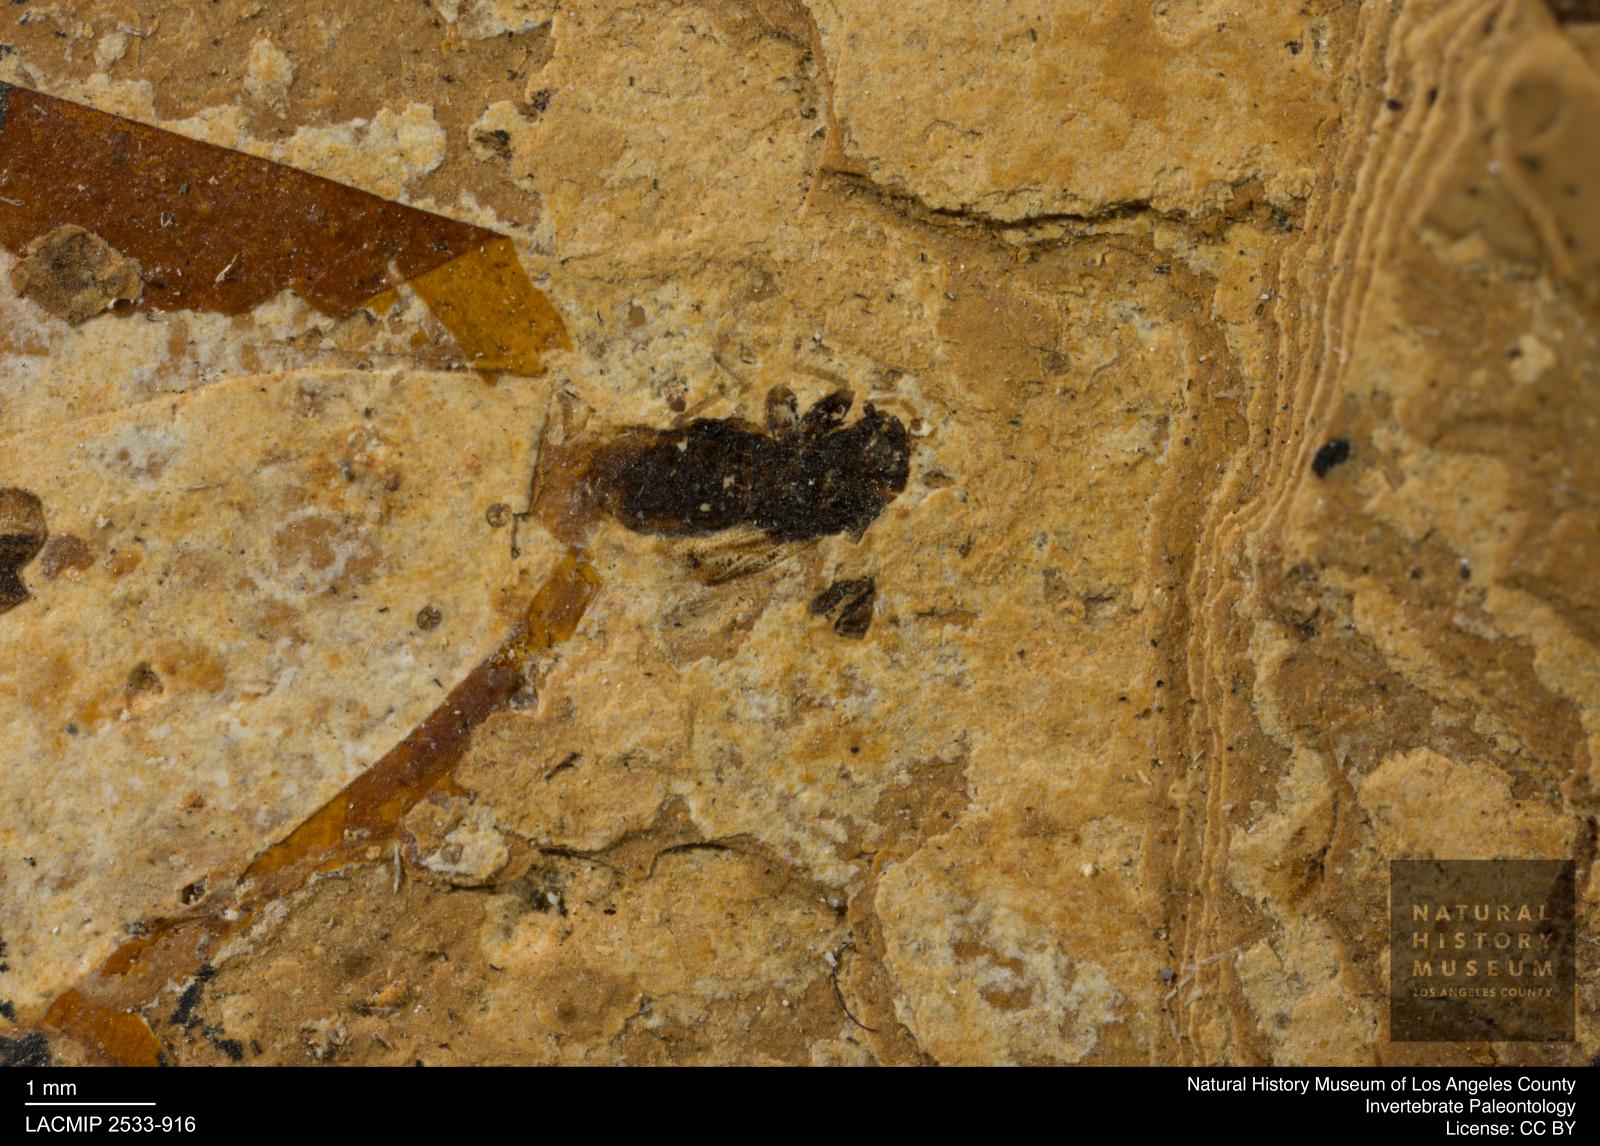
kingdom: Animalia
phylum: Arthropoda
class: Insecta
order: Hemiptera
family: Lygaeidae
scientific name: Lygaeidae
